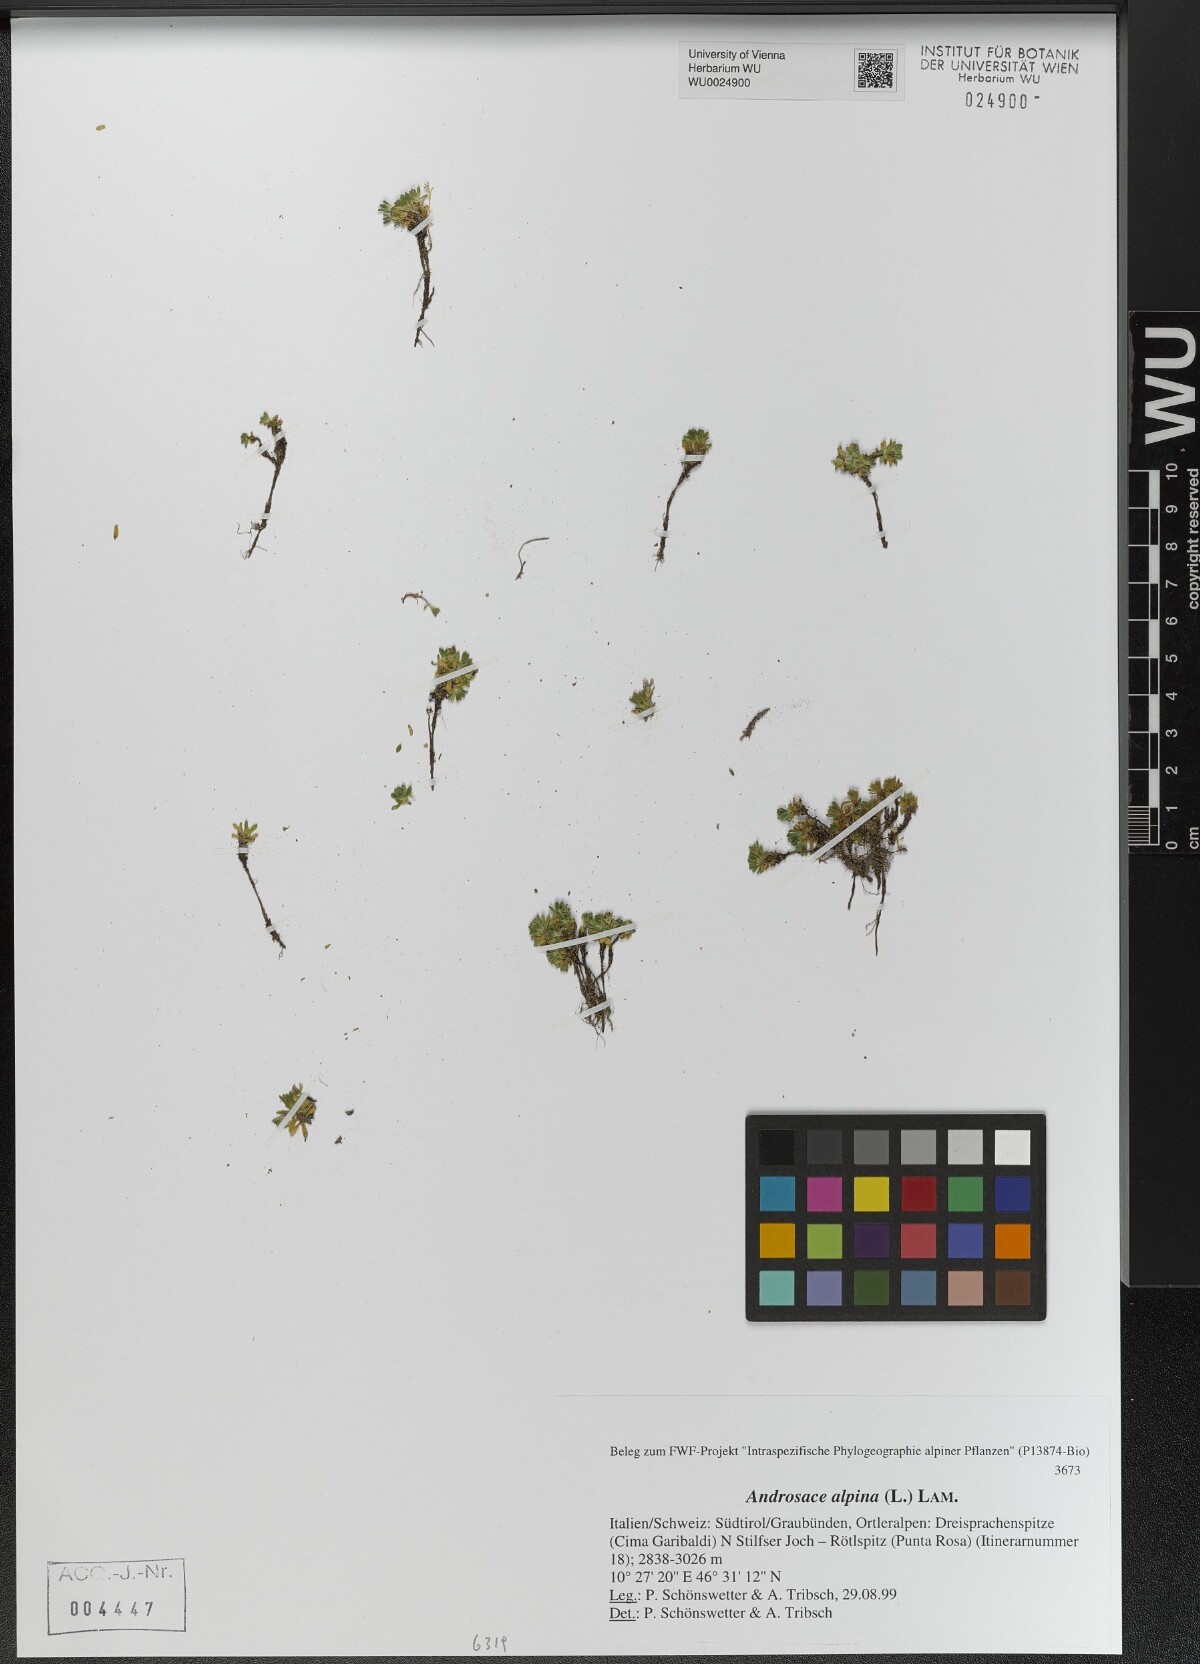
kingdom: Plantae
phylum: Tracheophyta
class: Magnoliopsida
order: Ericales
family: Primulaceae
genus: Androsace
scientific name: Androsace alpina
